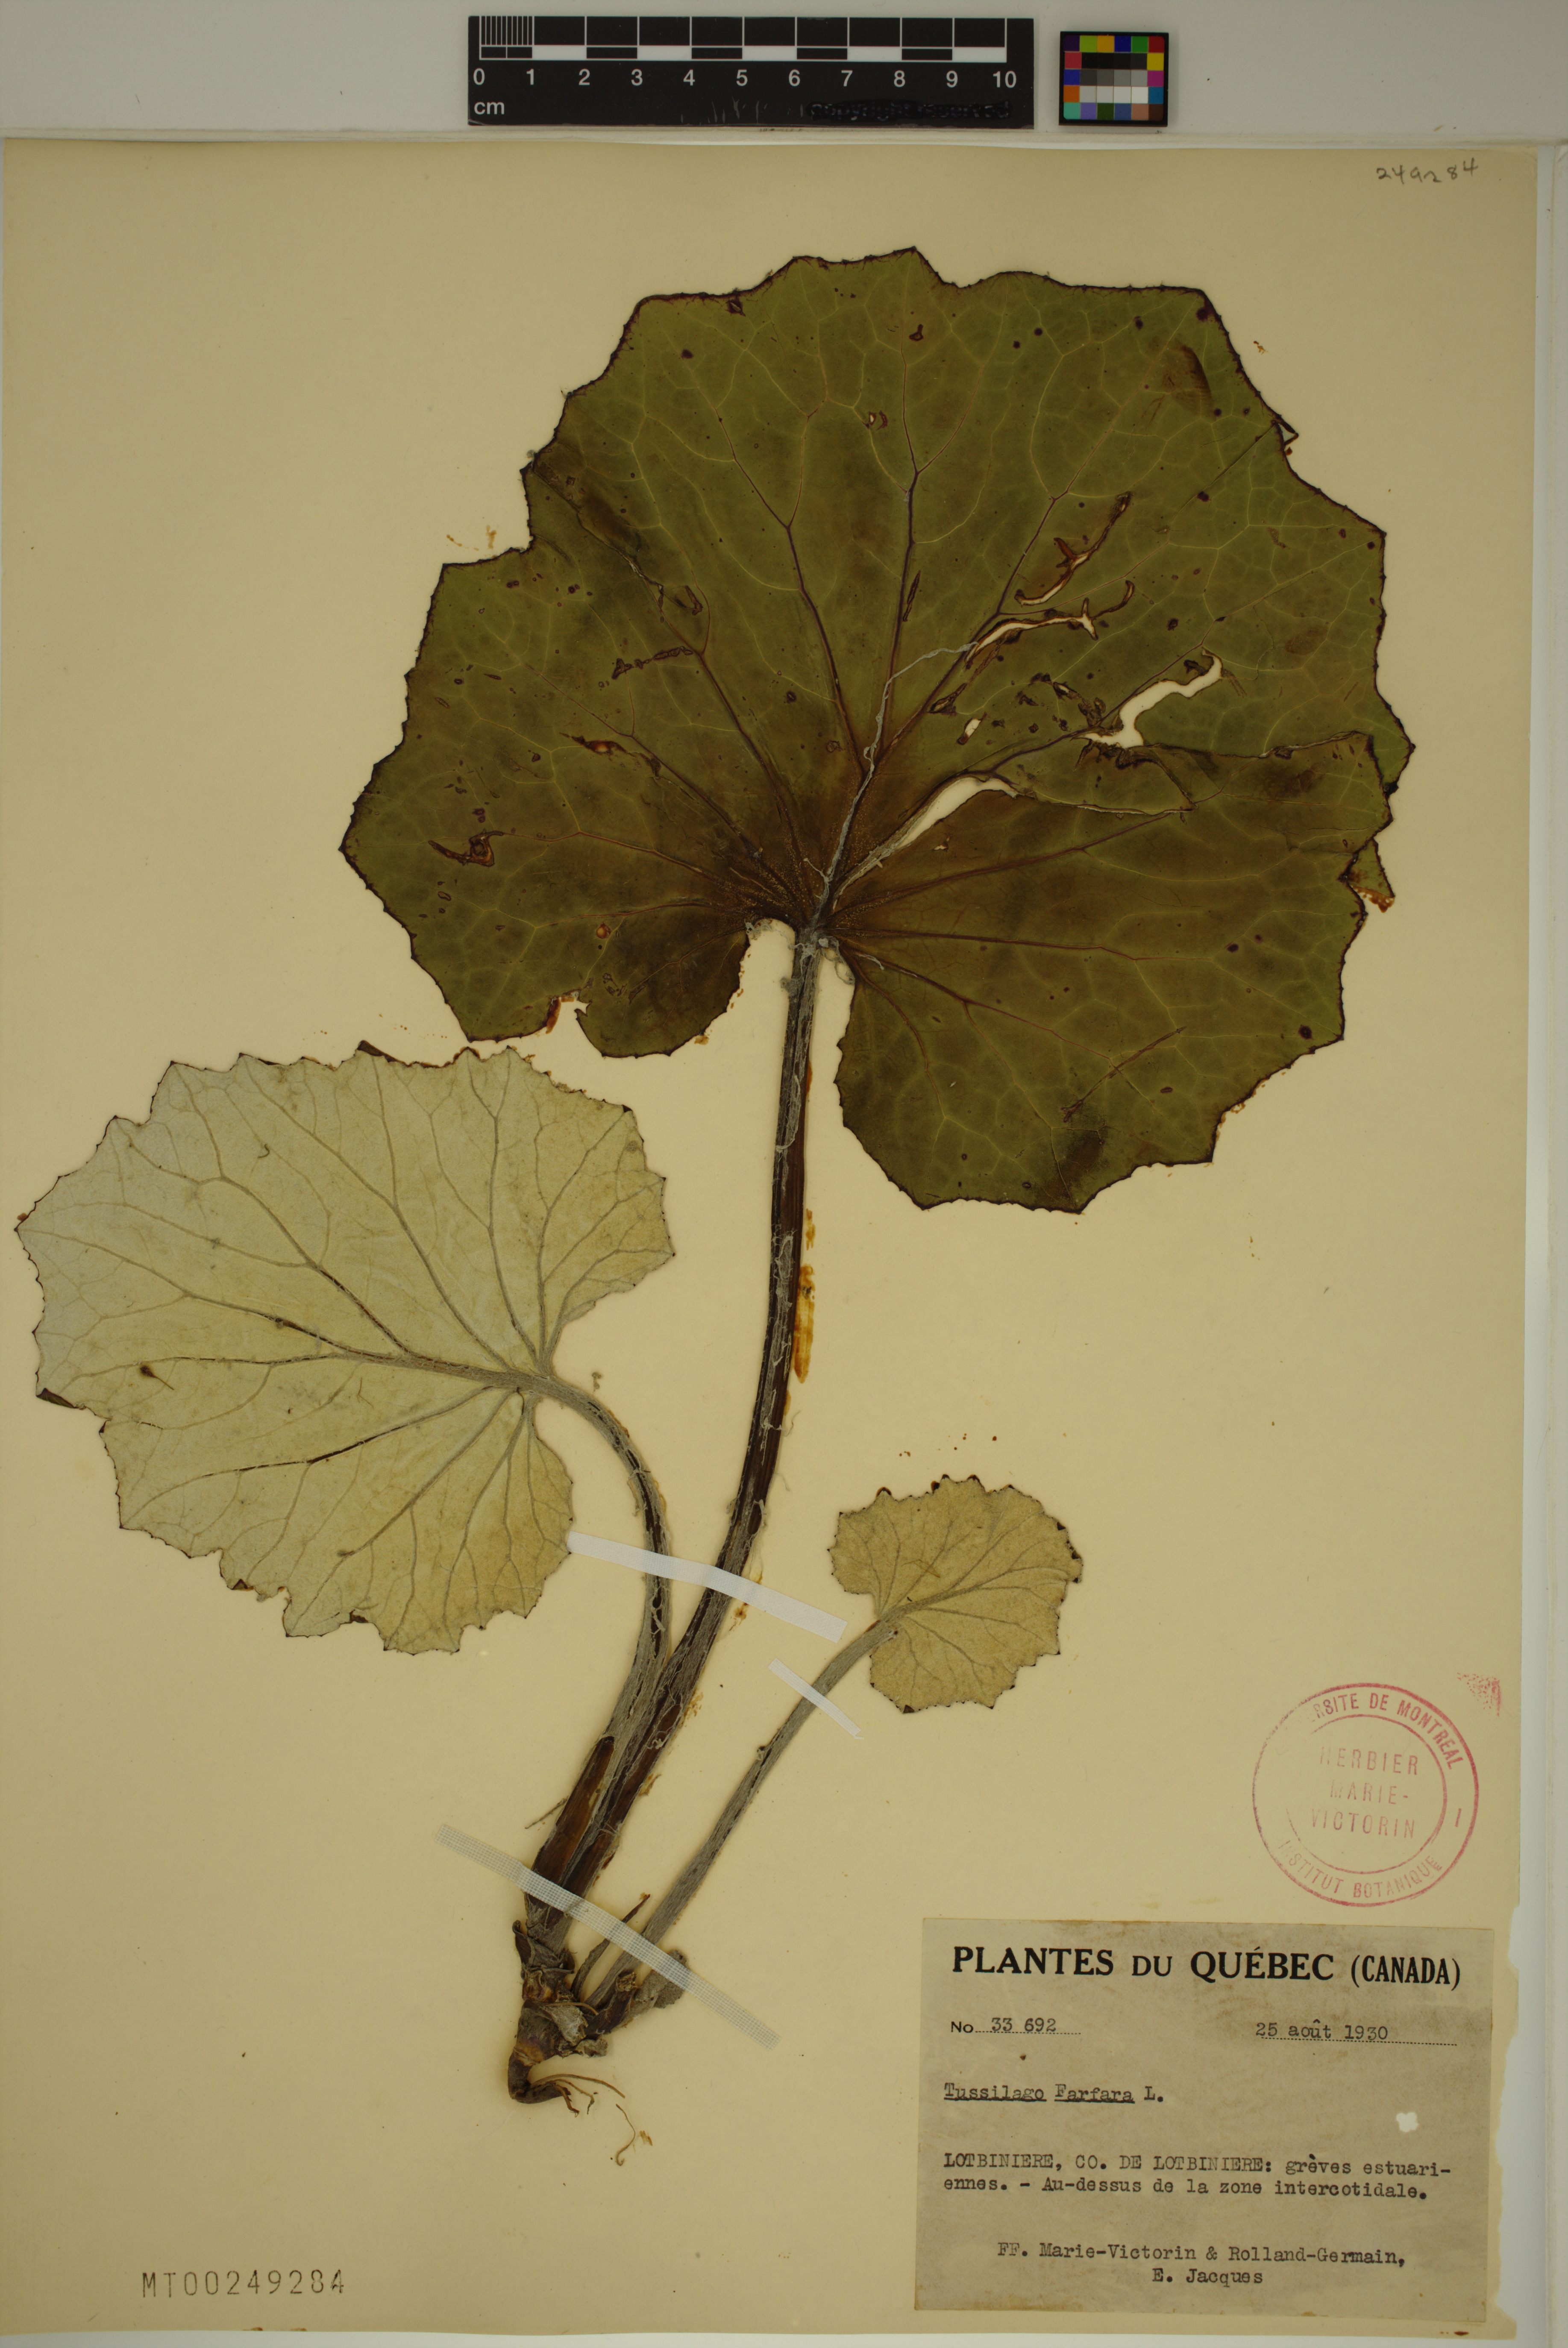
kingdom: Plantae
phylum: Tracheophyta
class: Magnoliopsida
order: Asterales
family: Asteraceae
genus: Tussilago
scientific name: Tussilago farfara
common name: Coltsfoot
